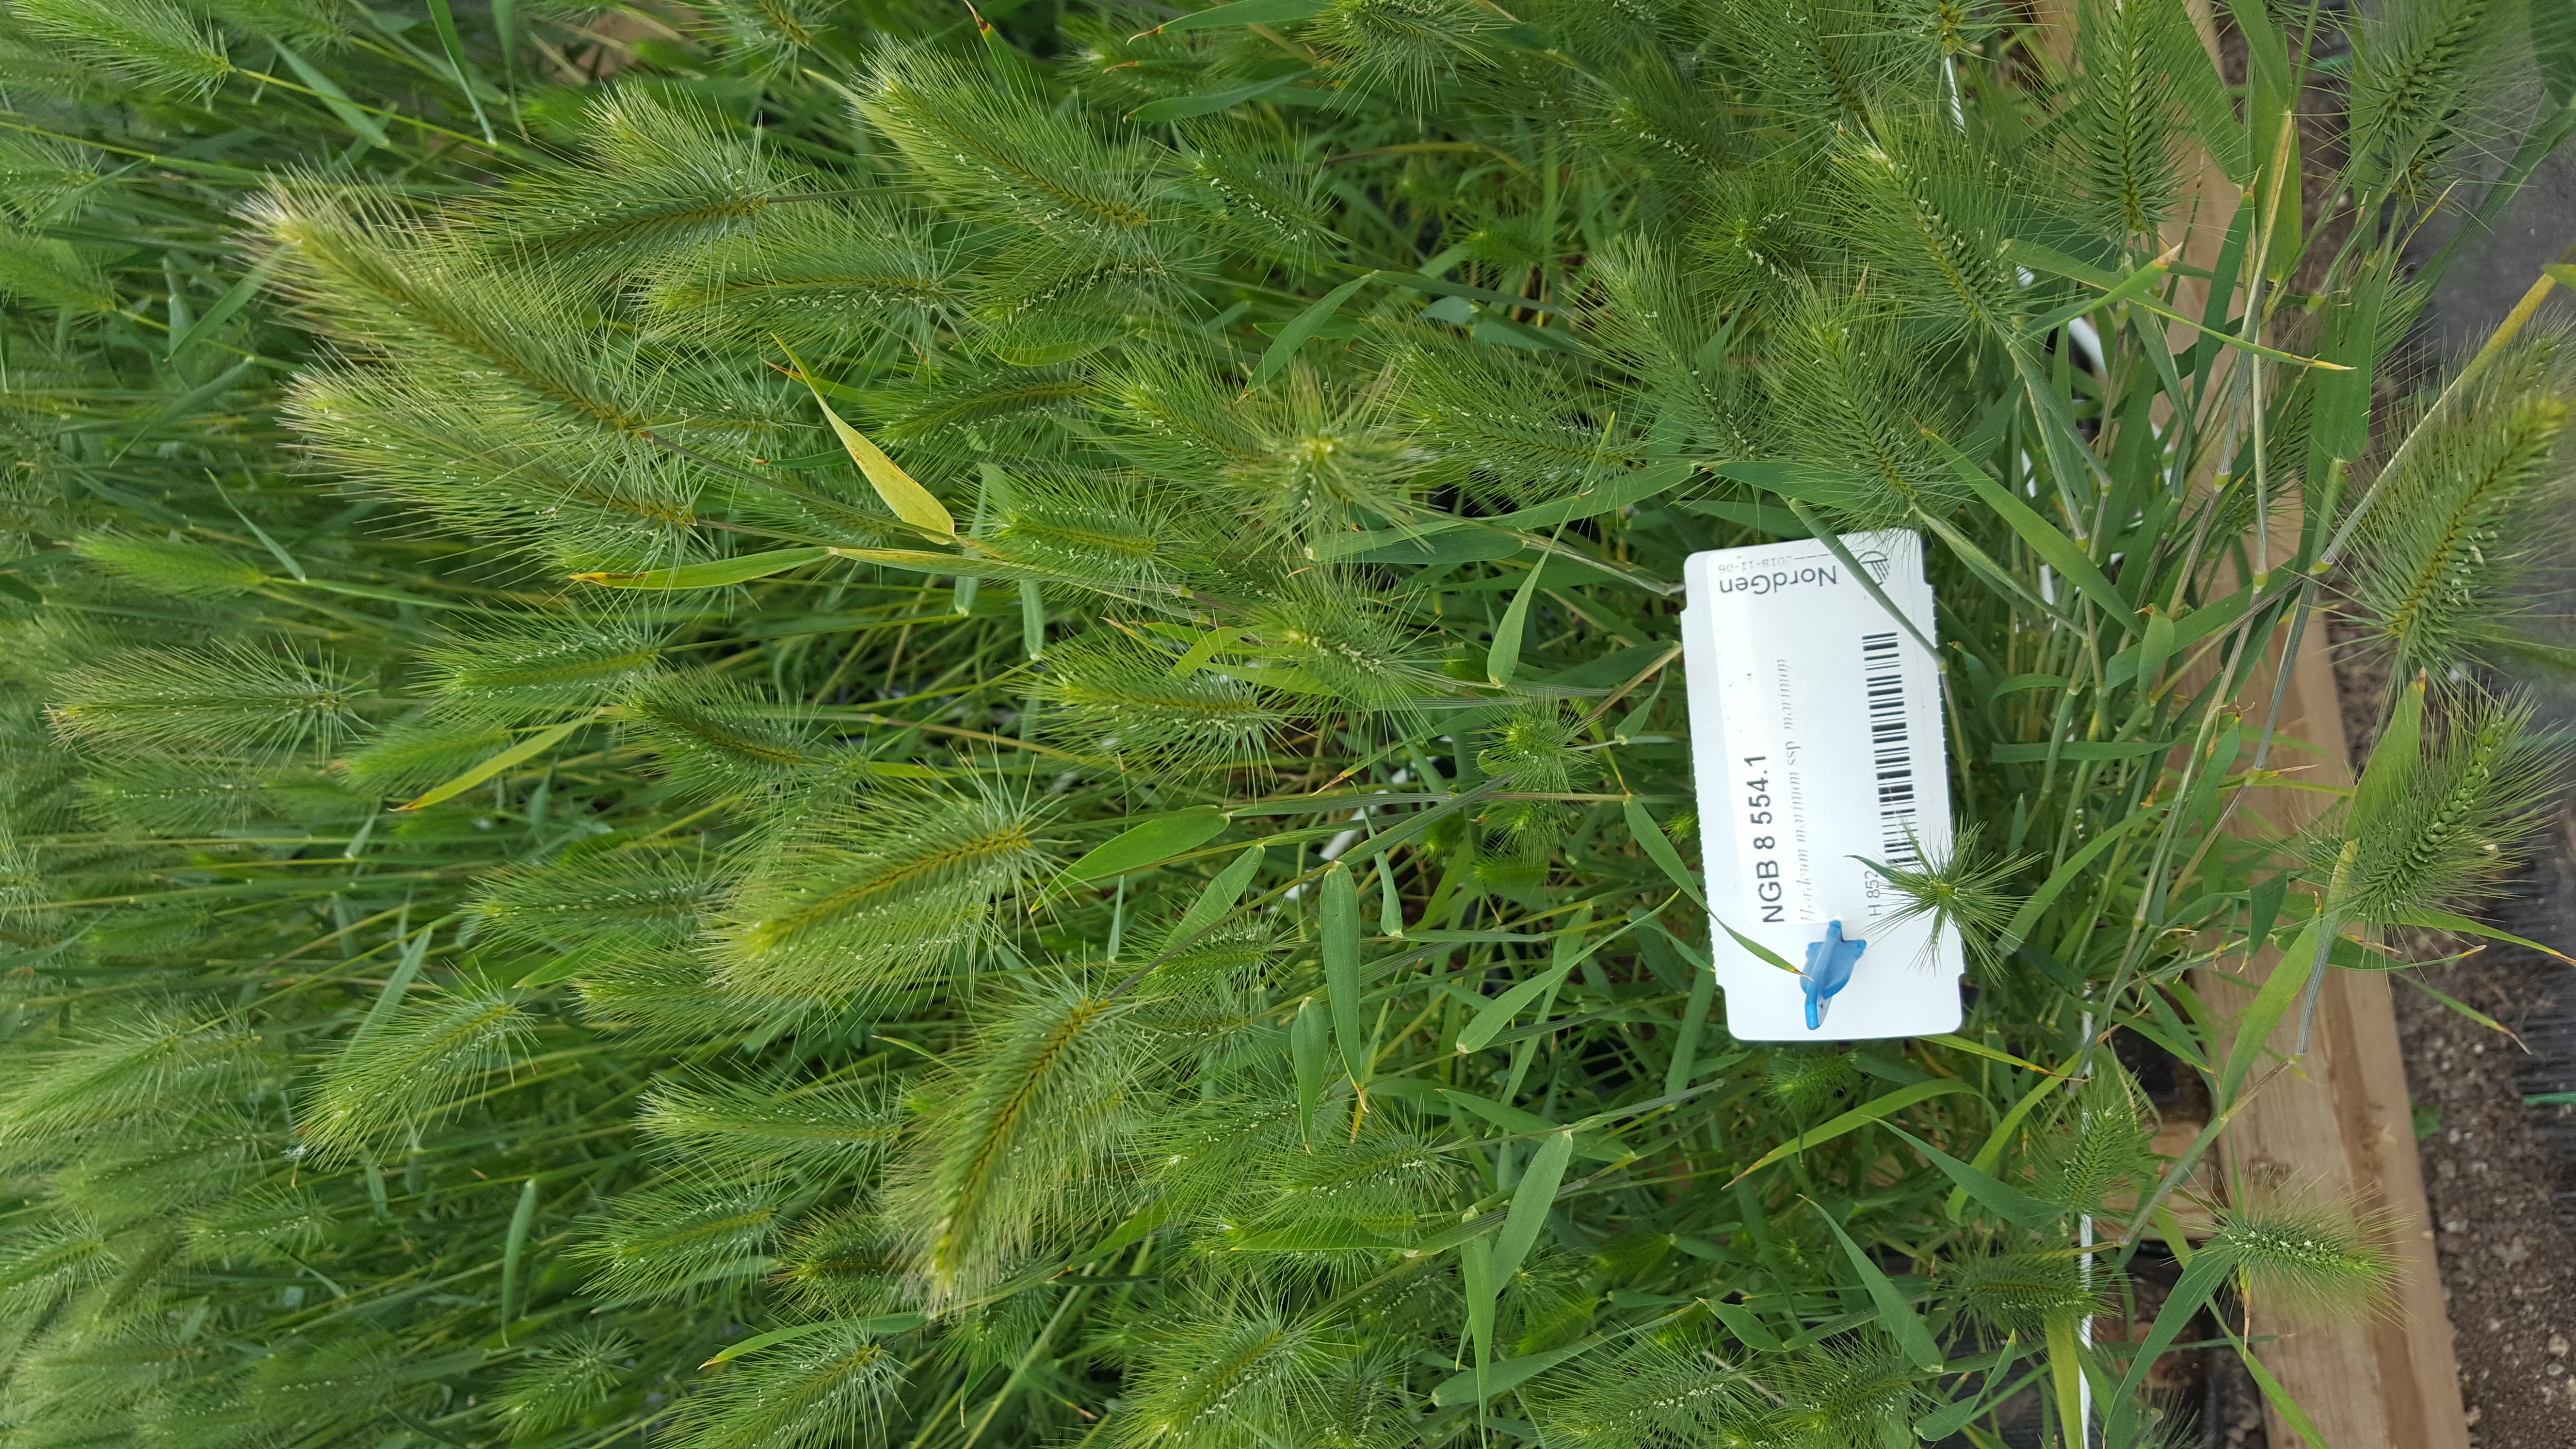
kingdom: Plantae
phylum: Tracheophyta
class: Liliopsida
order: Poales
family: Poaceae
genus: Hordeum
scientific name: Hordeum marinum
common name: Sea barley
